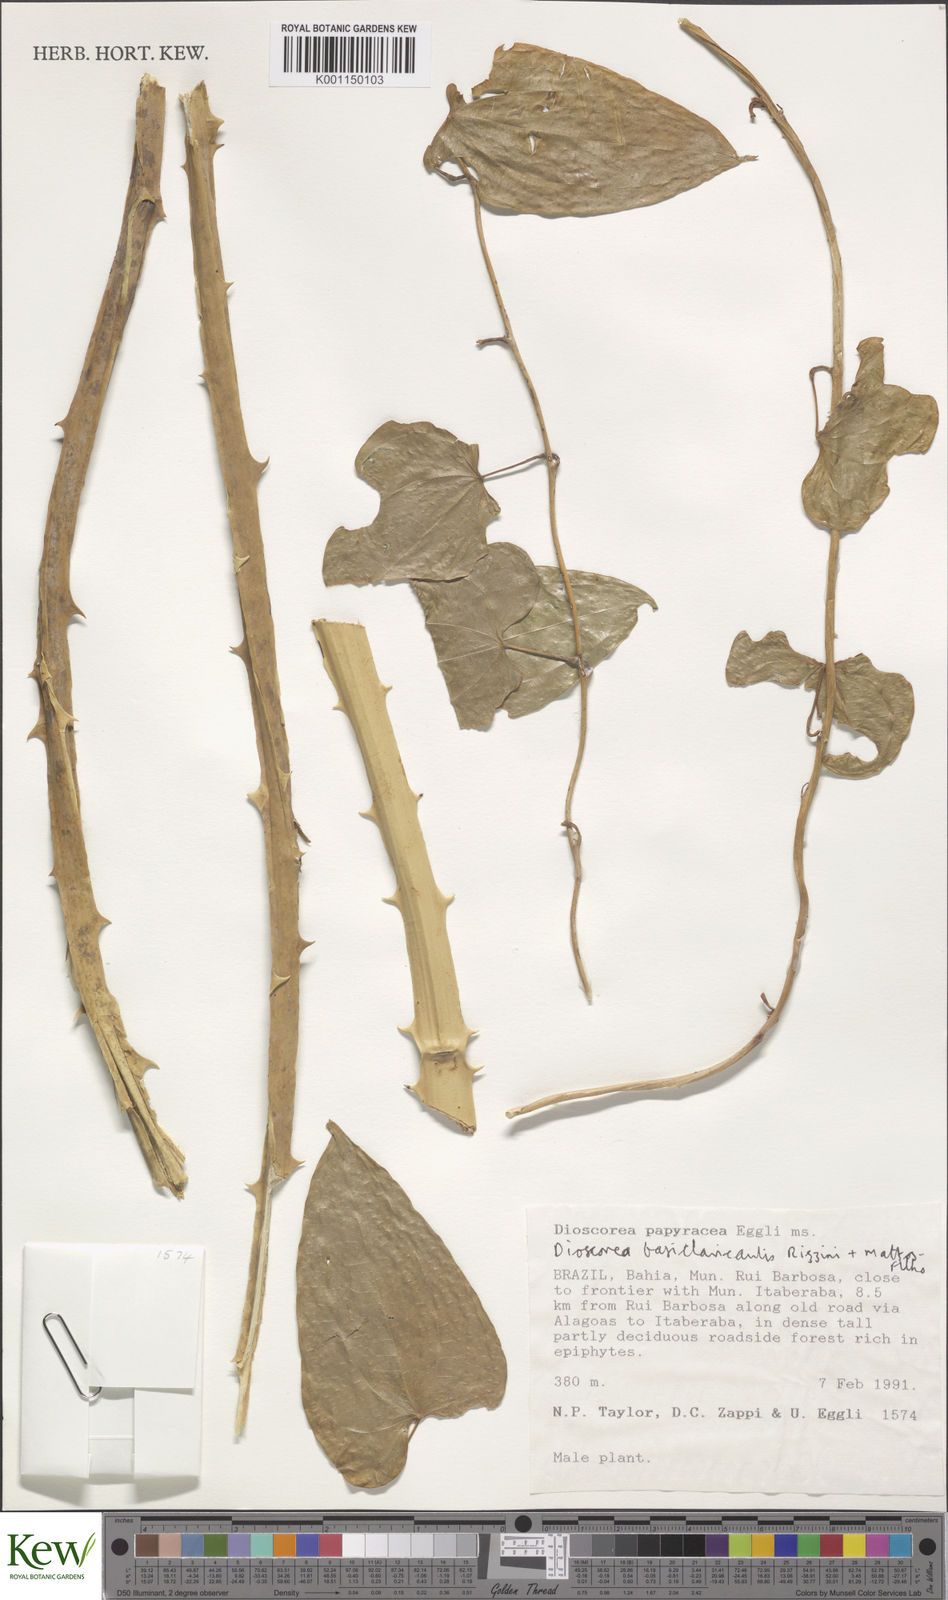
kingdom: Plantae
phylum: Tracheophyta
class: Liliopsida
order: Dioscoreales
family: Dioscoreaceae
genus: Dioscorea
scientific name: Dioscorea basiclavicaulis
